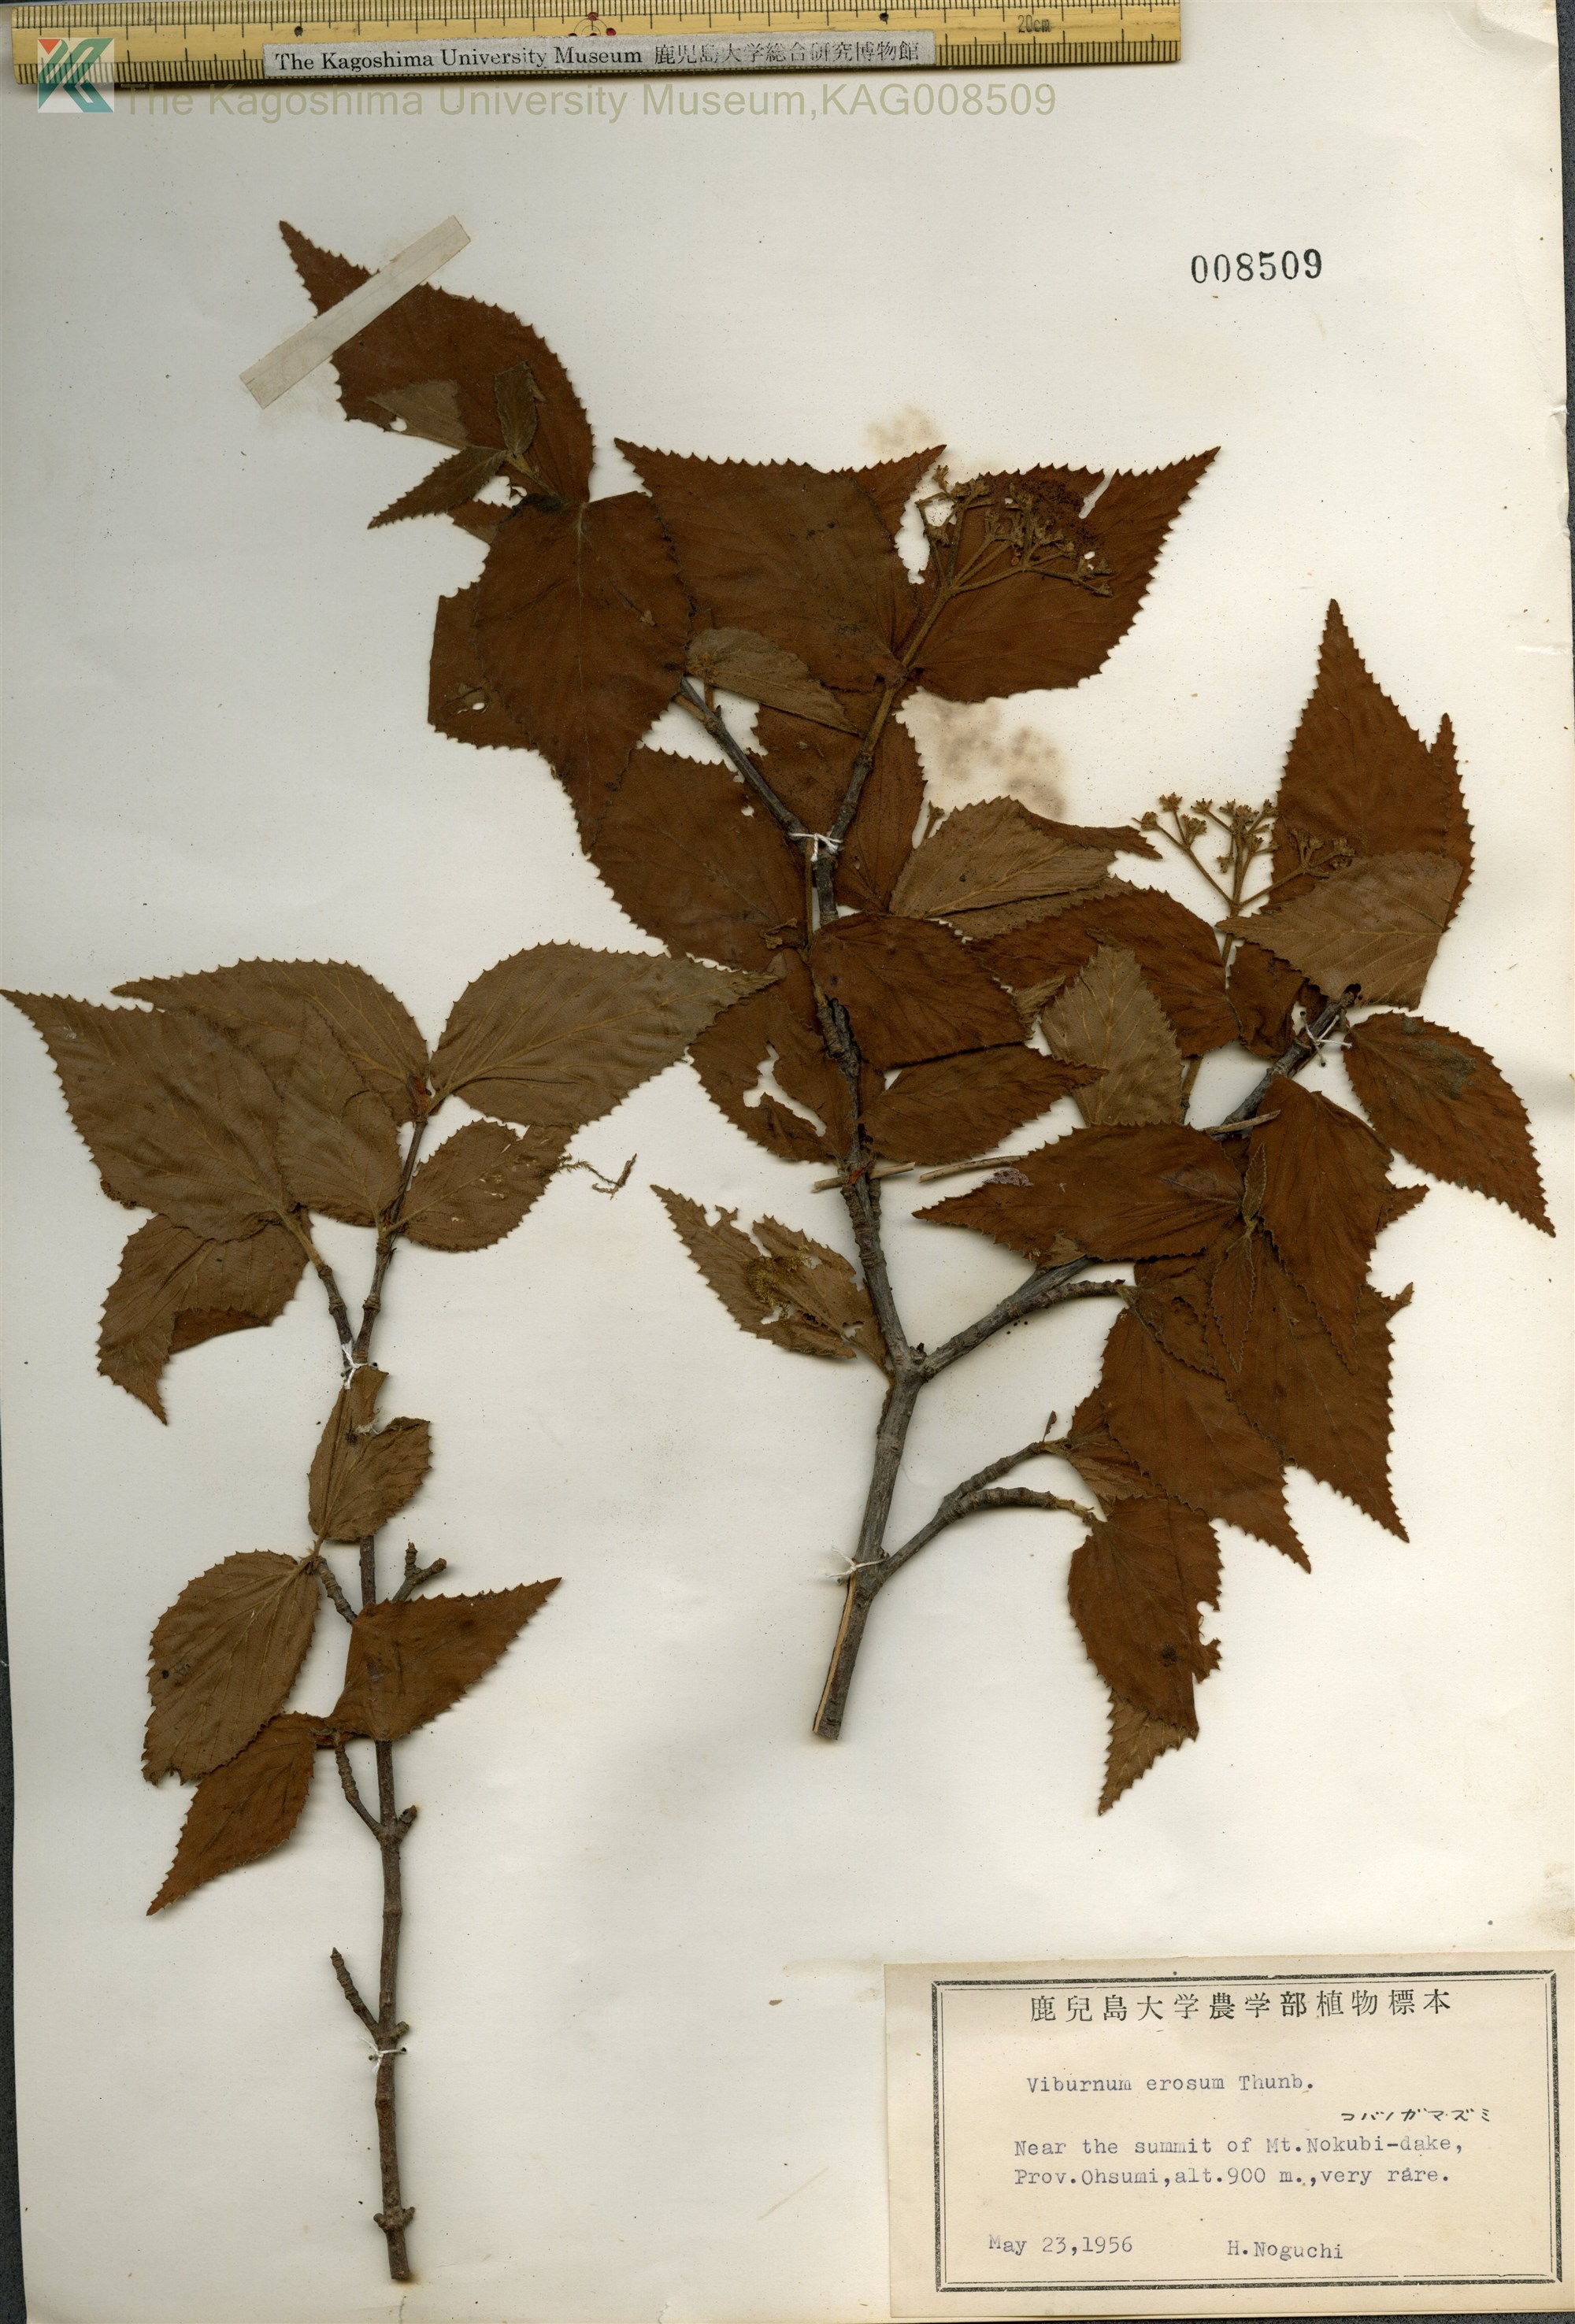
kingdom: Plantae
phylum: Tracheophyta
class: Magnoliopsida
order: Dipsacales
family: Viburnaceae
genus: Viburnum
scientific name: Viburnum erosum
